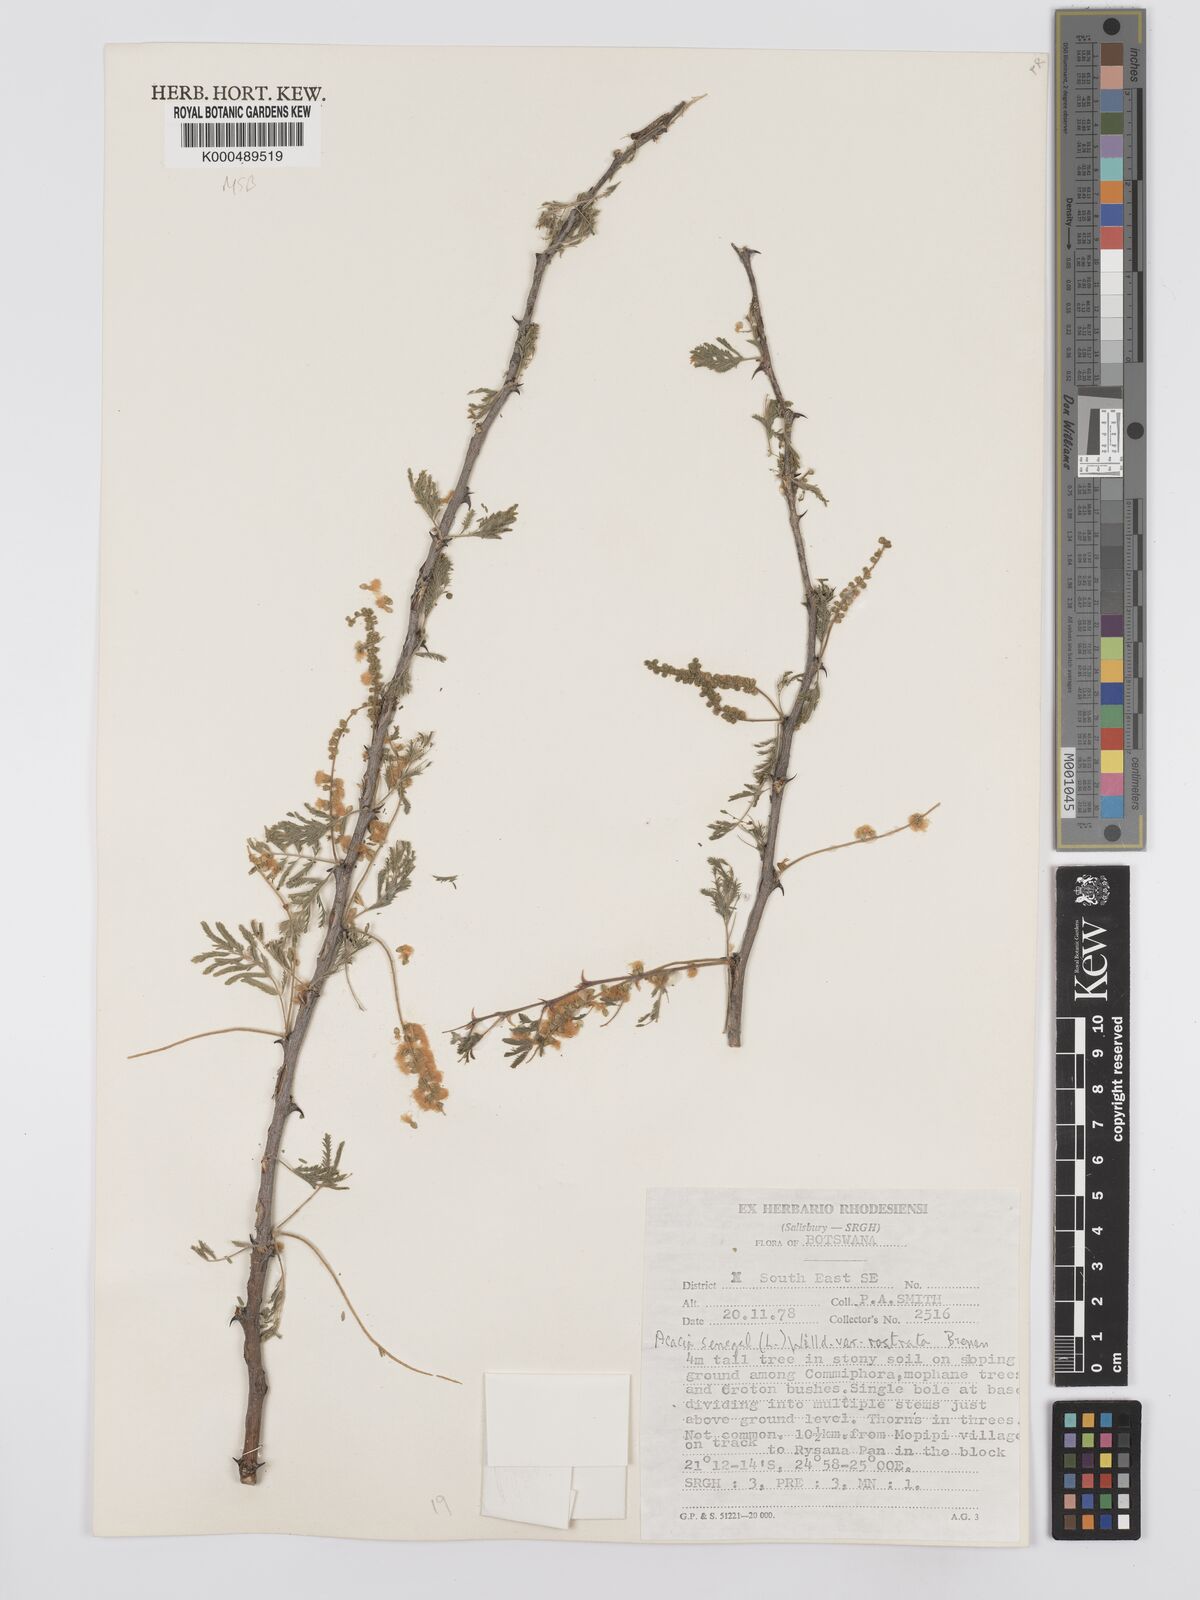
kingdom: Plantae
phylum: Tracheophyta
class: Magnoliopsida
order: Fabales
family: Fabaceae
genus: Senegalia
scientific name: Senegalia senegal
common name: Senegal-gum
